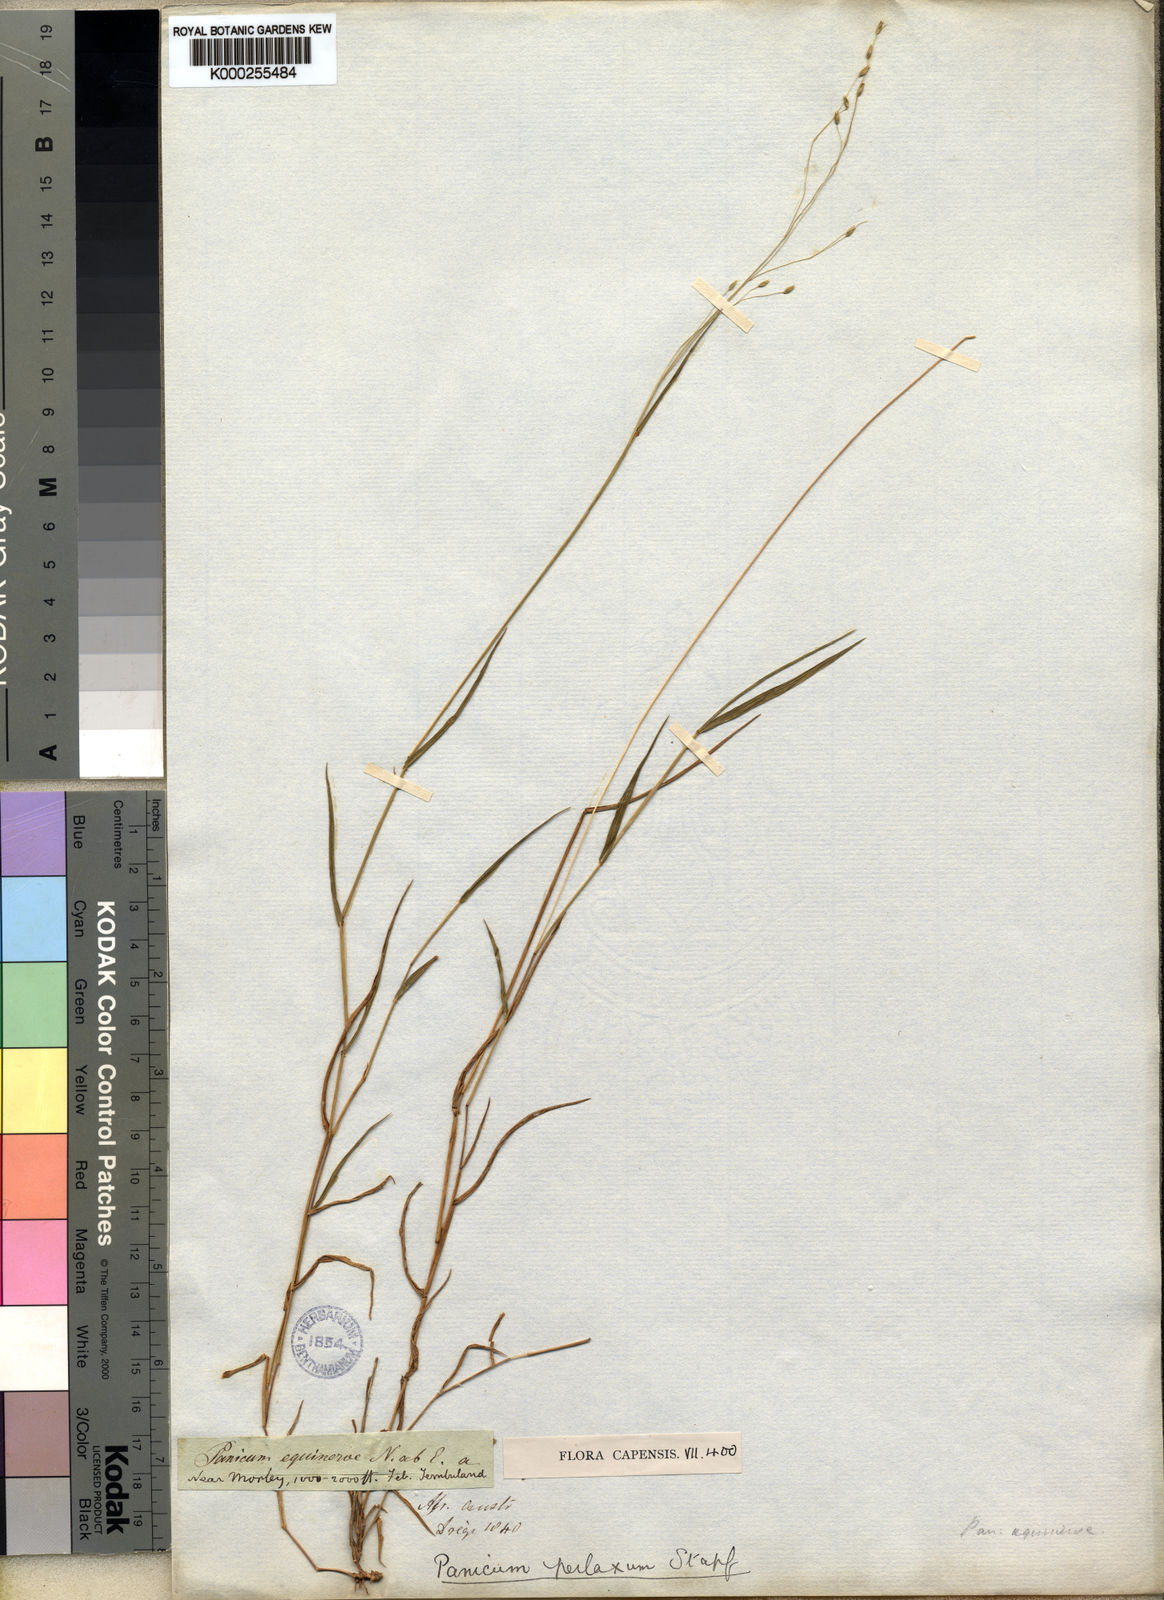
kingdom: Plantae
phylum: Tracheophyta
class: Liliopsida
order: Poales
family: Poaceae
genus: Panicum
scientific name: Panicum aequinerve
